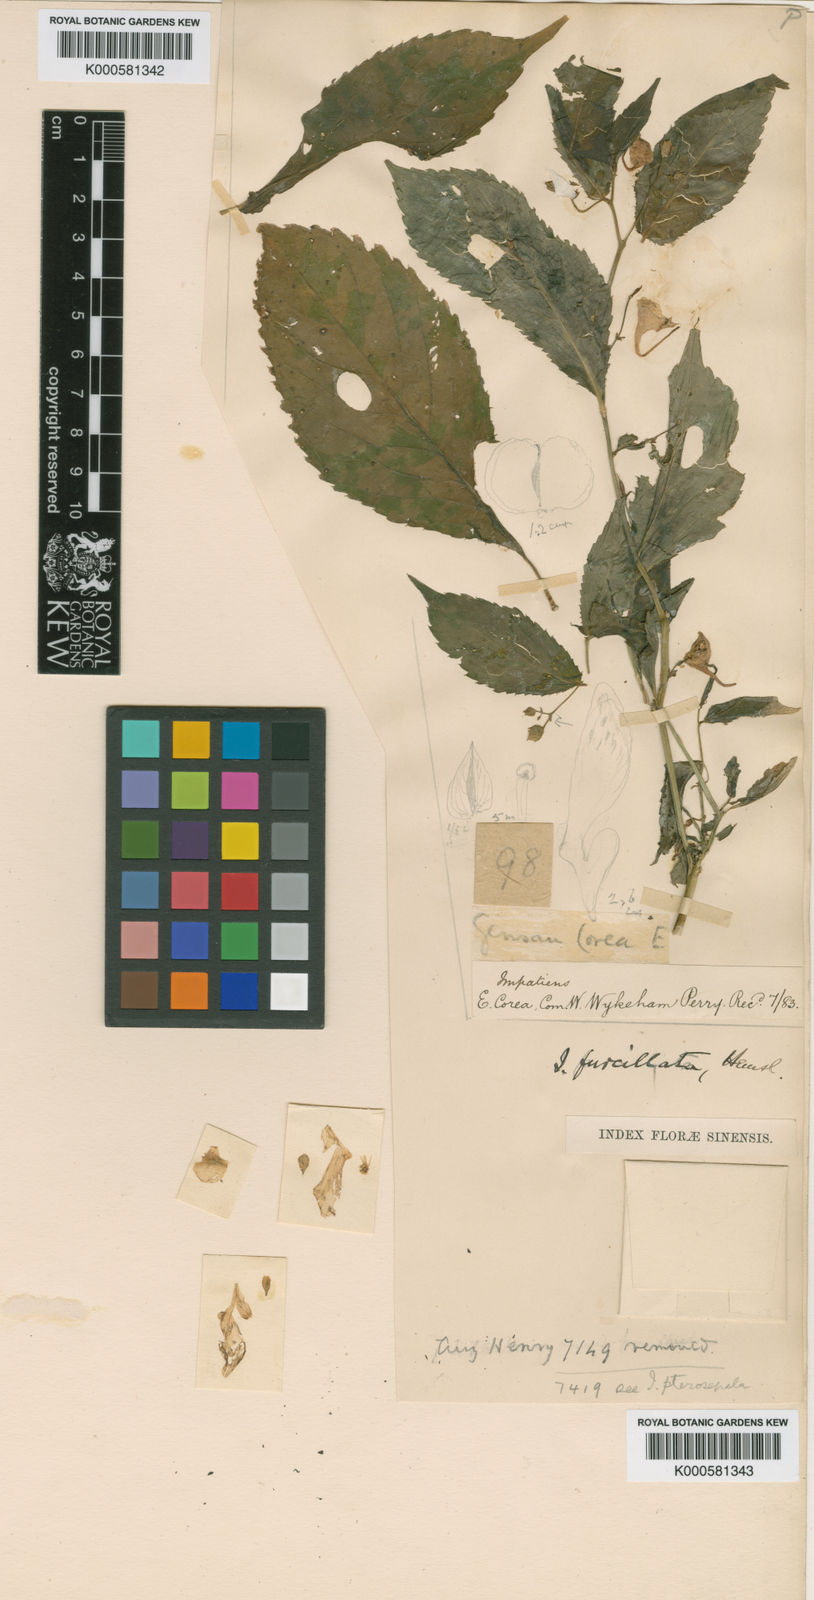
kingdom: Plantae
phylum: Tracheophyta
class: Magnoliopsida
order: Ericales
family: Balsaminaceae
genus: Impatiens
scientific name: Impatiens furcillata
